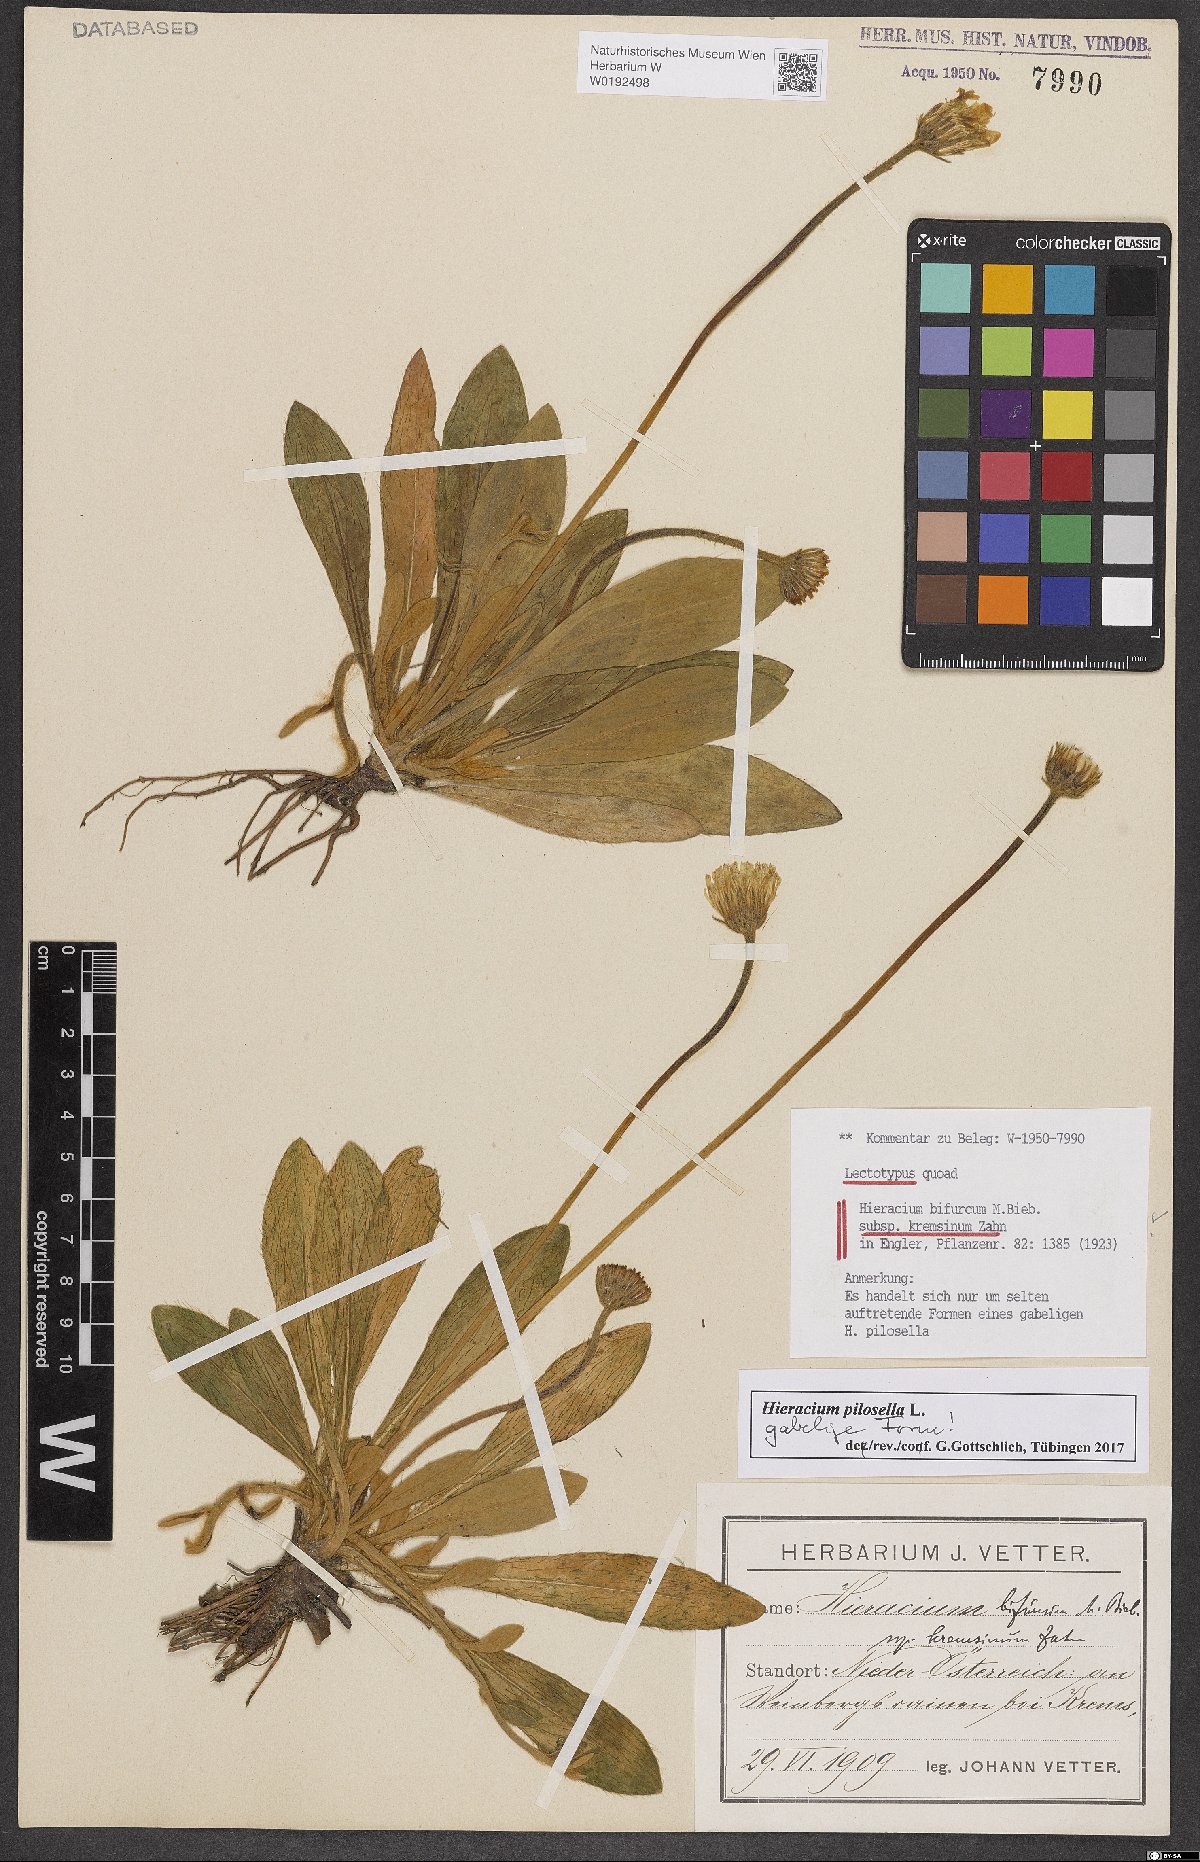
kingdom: Plantae
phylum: Tracheophyta
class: Magnoliopsida
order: Asterales
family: Asteraceae
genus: Hieracium
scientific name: Hieracium bifurcum
